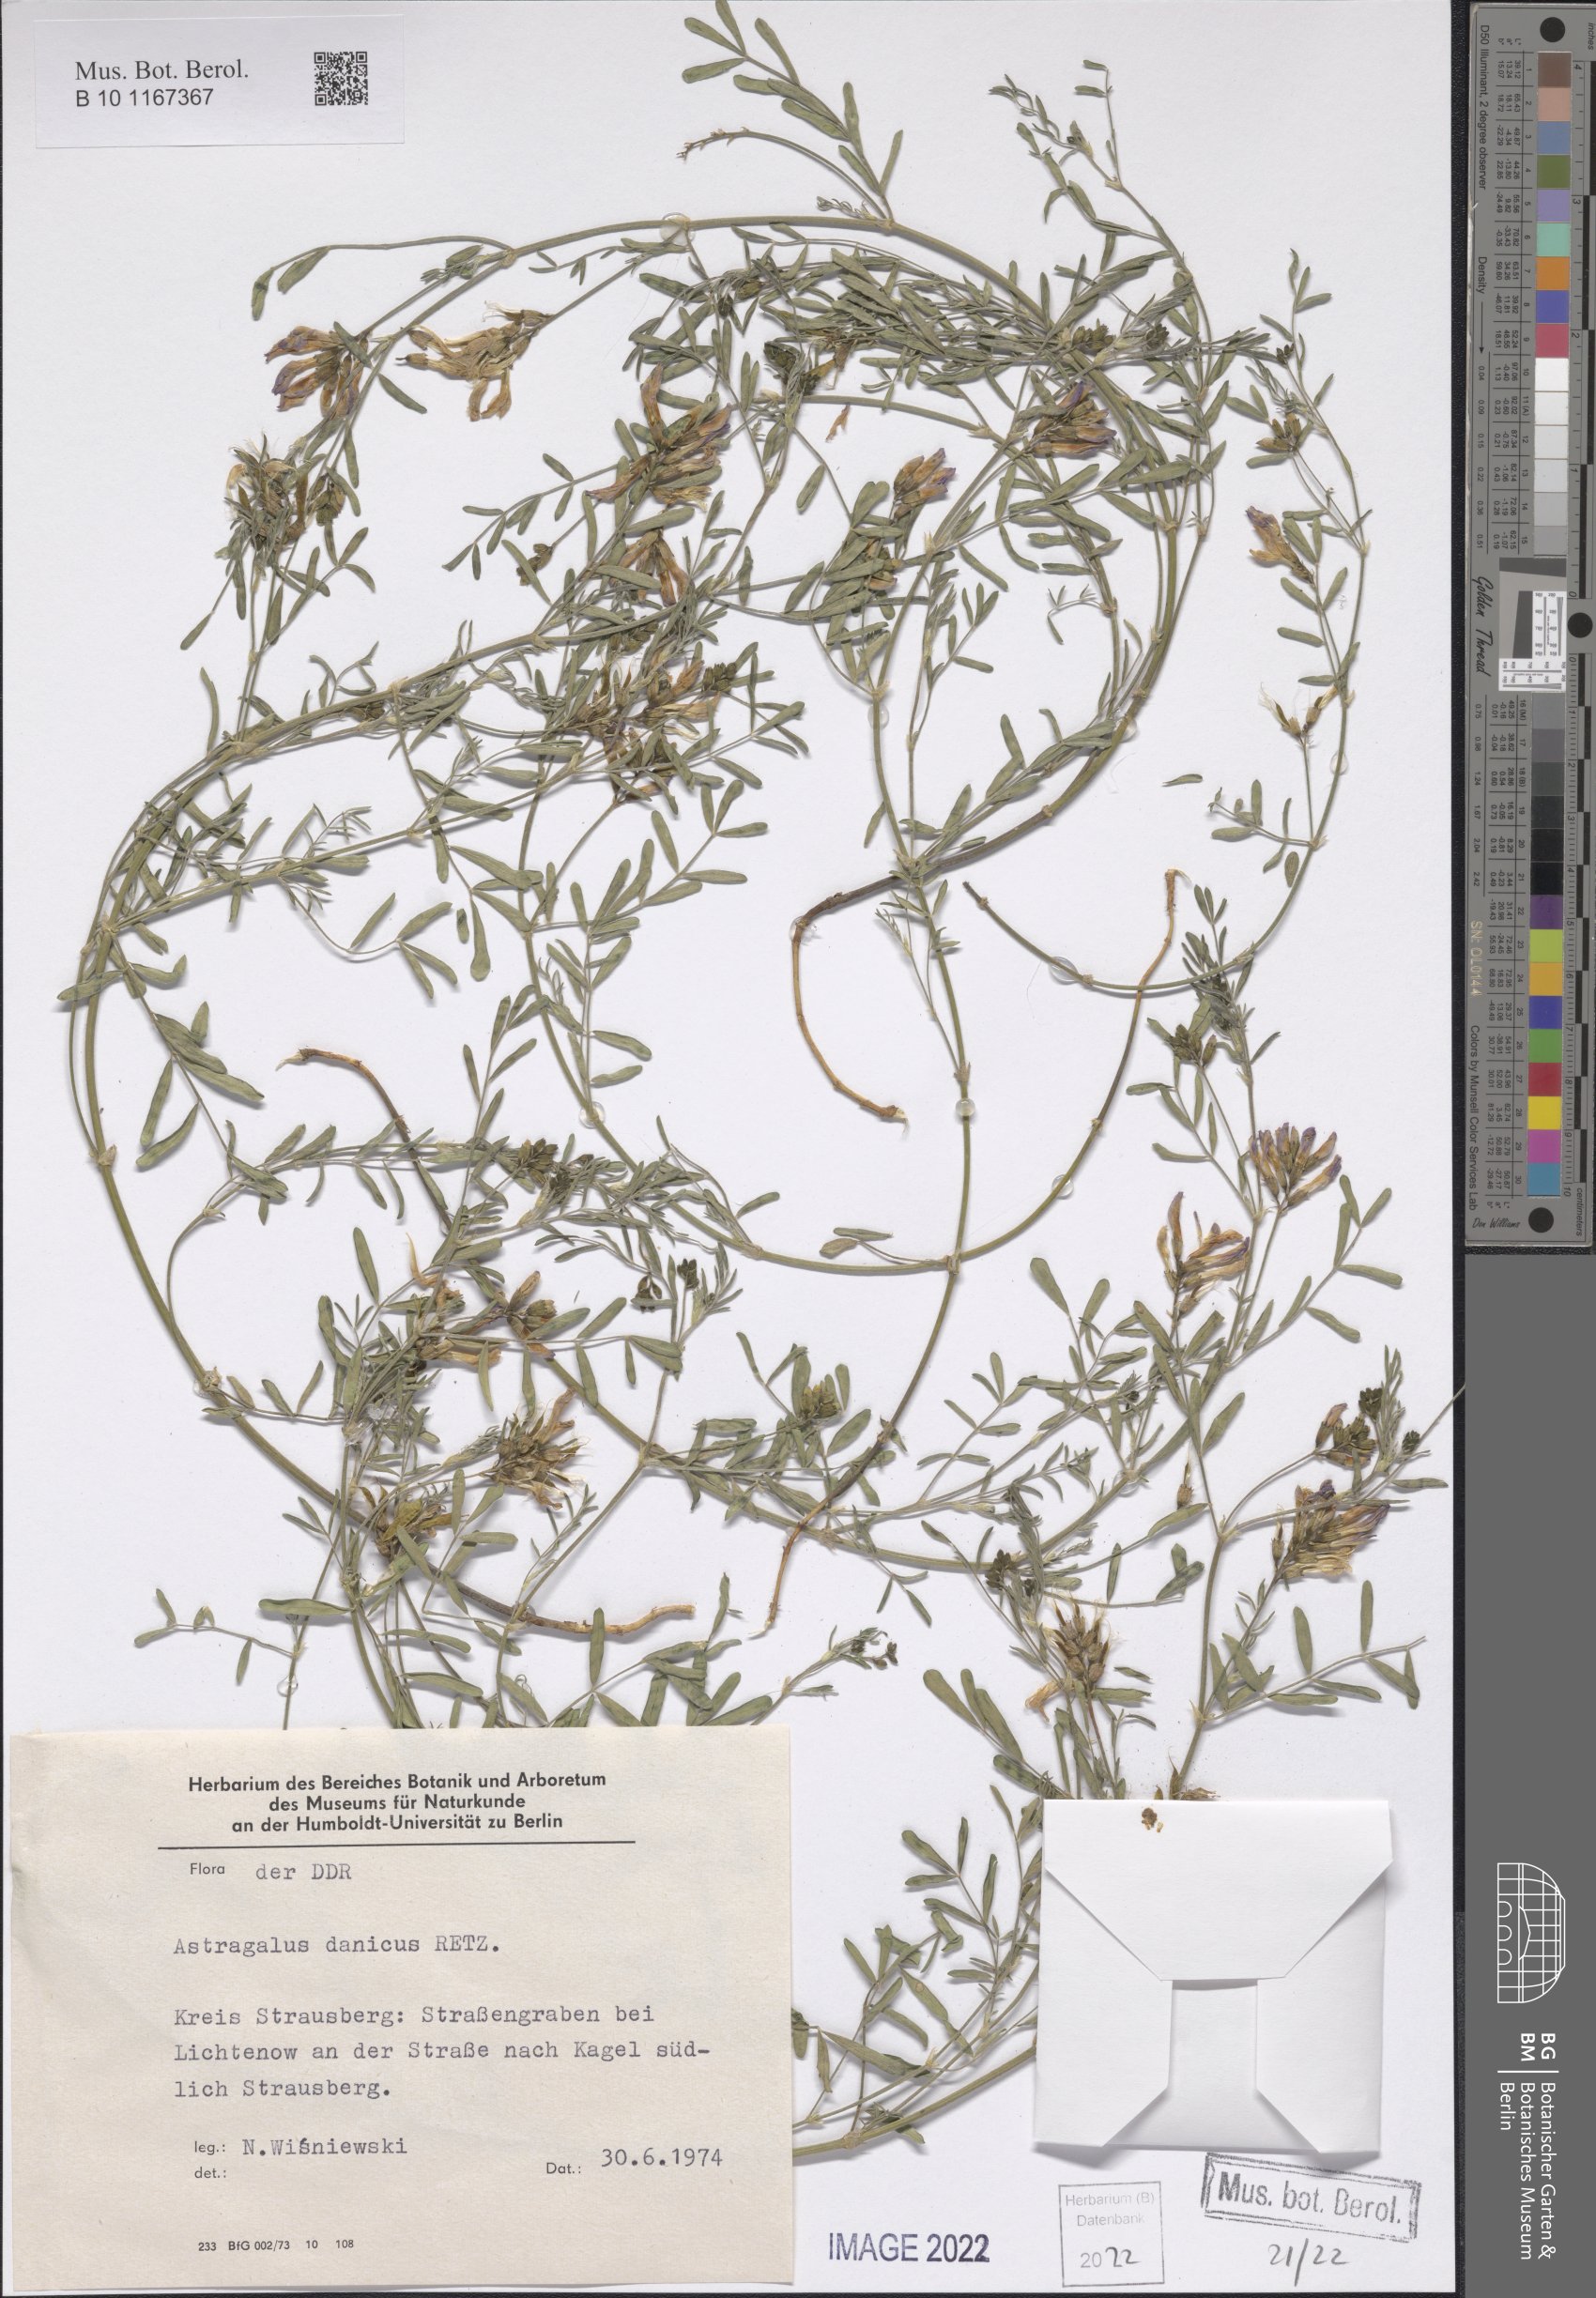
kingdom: Plantae
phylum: Tracheophyta
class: Magnoliopsida
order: Fabales
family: Fabaceae
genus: Astragalus
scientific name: Astragalus danicus
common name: Purple milk-vetch
